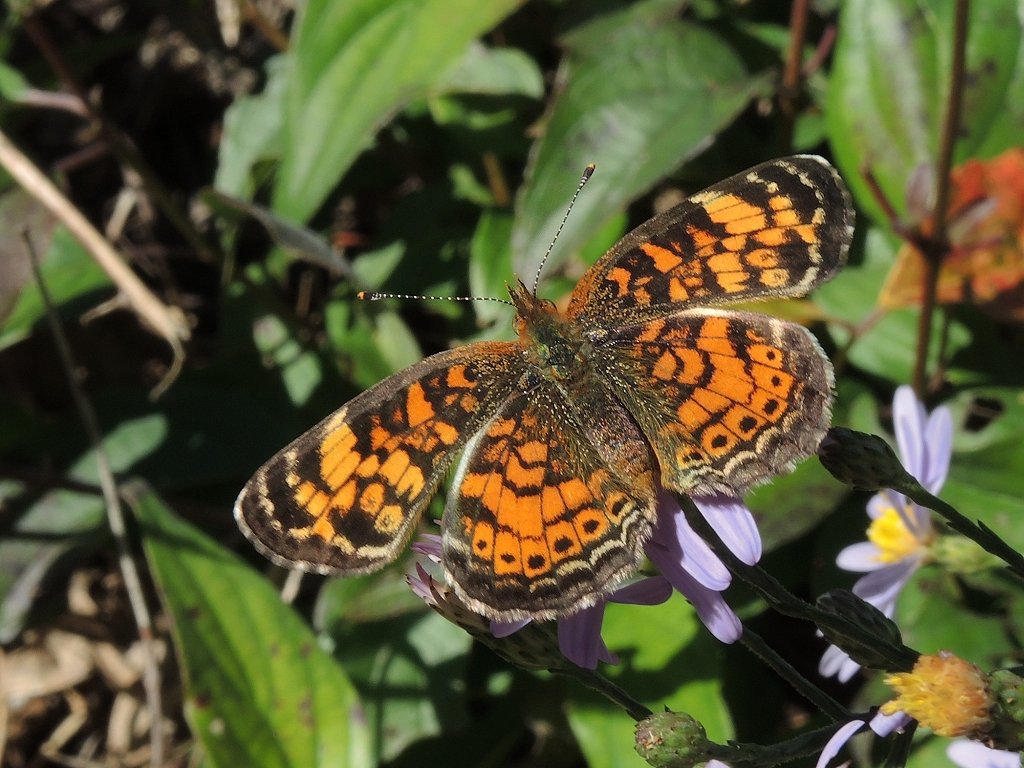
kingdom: Animalia
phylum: Arthropoda
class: Insecta
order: Lepidoptera
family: Nymphalidae
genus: Phyciodes
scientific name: Phyciodes tharos
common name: Pearl Crescent
